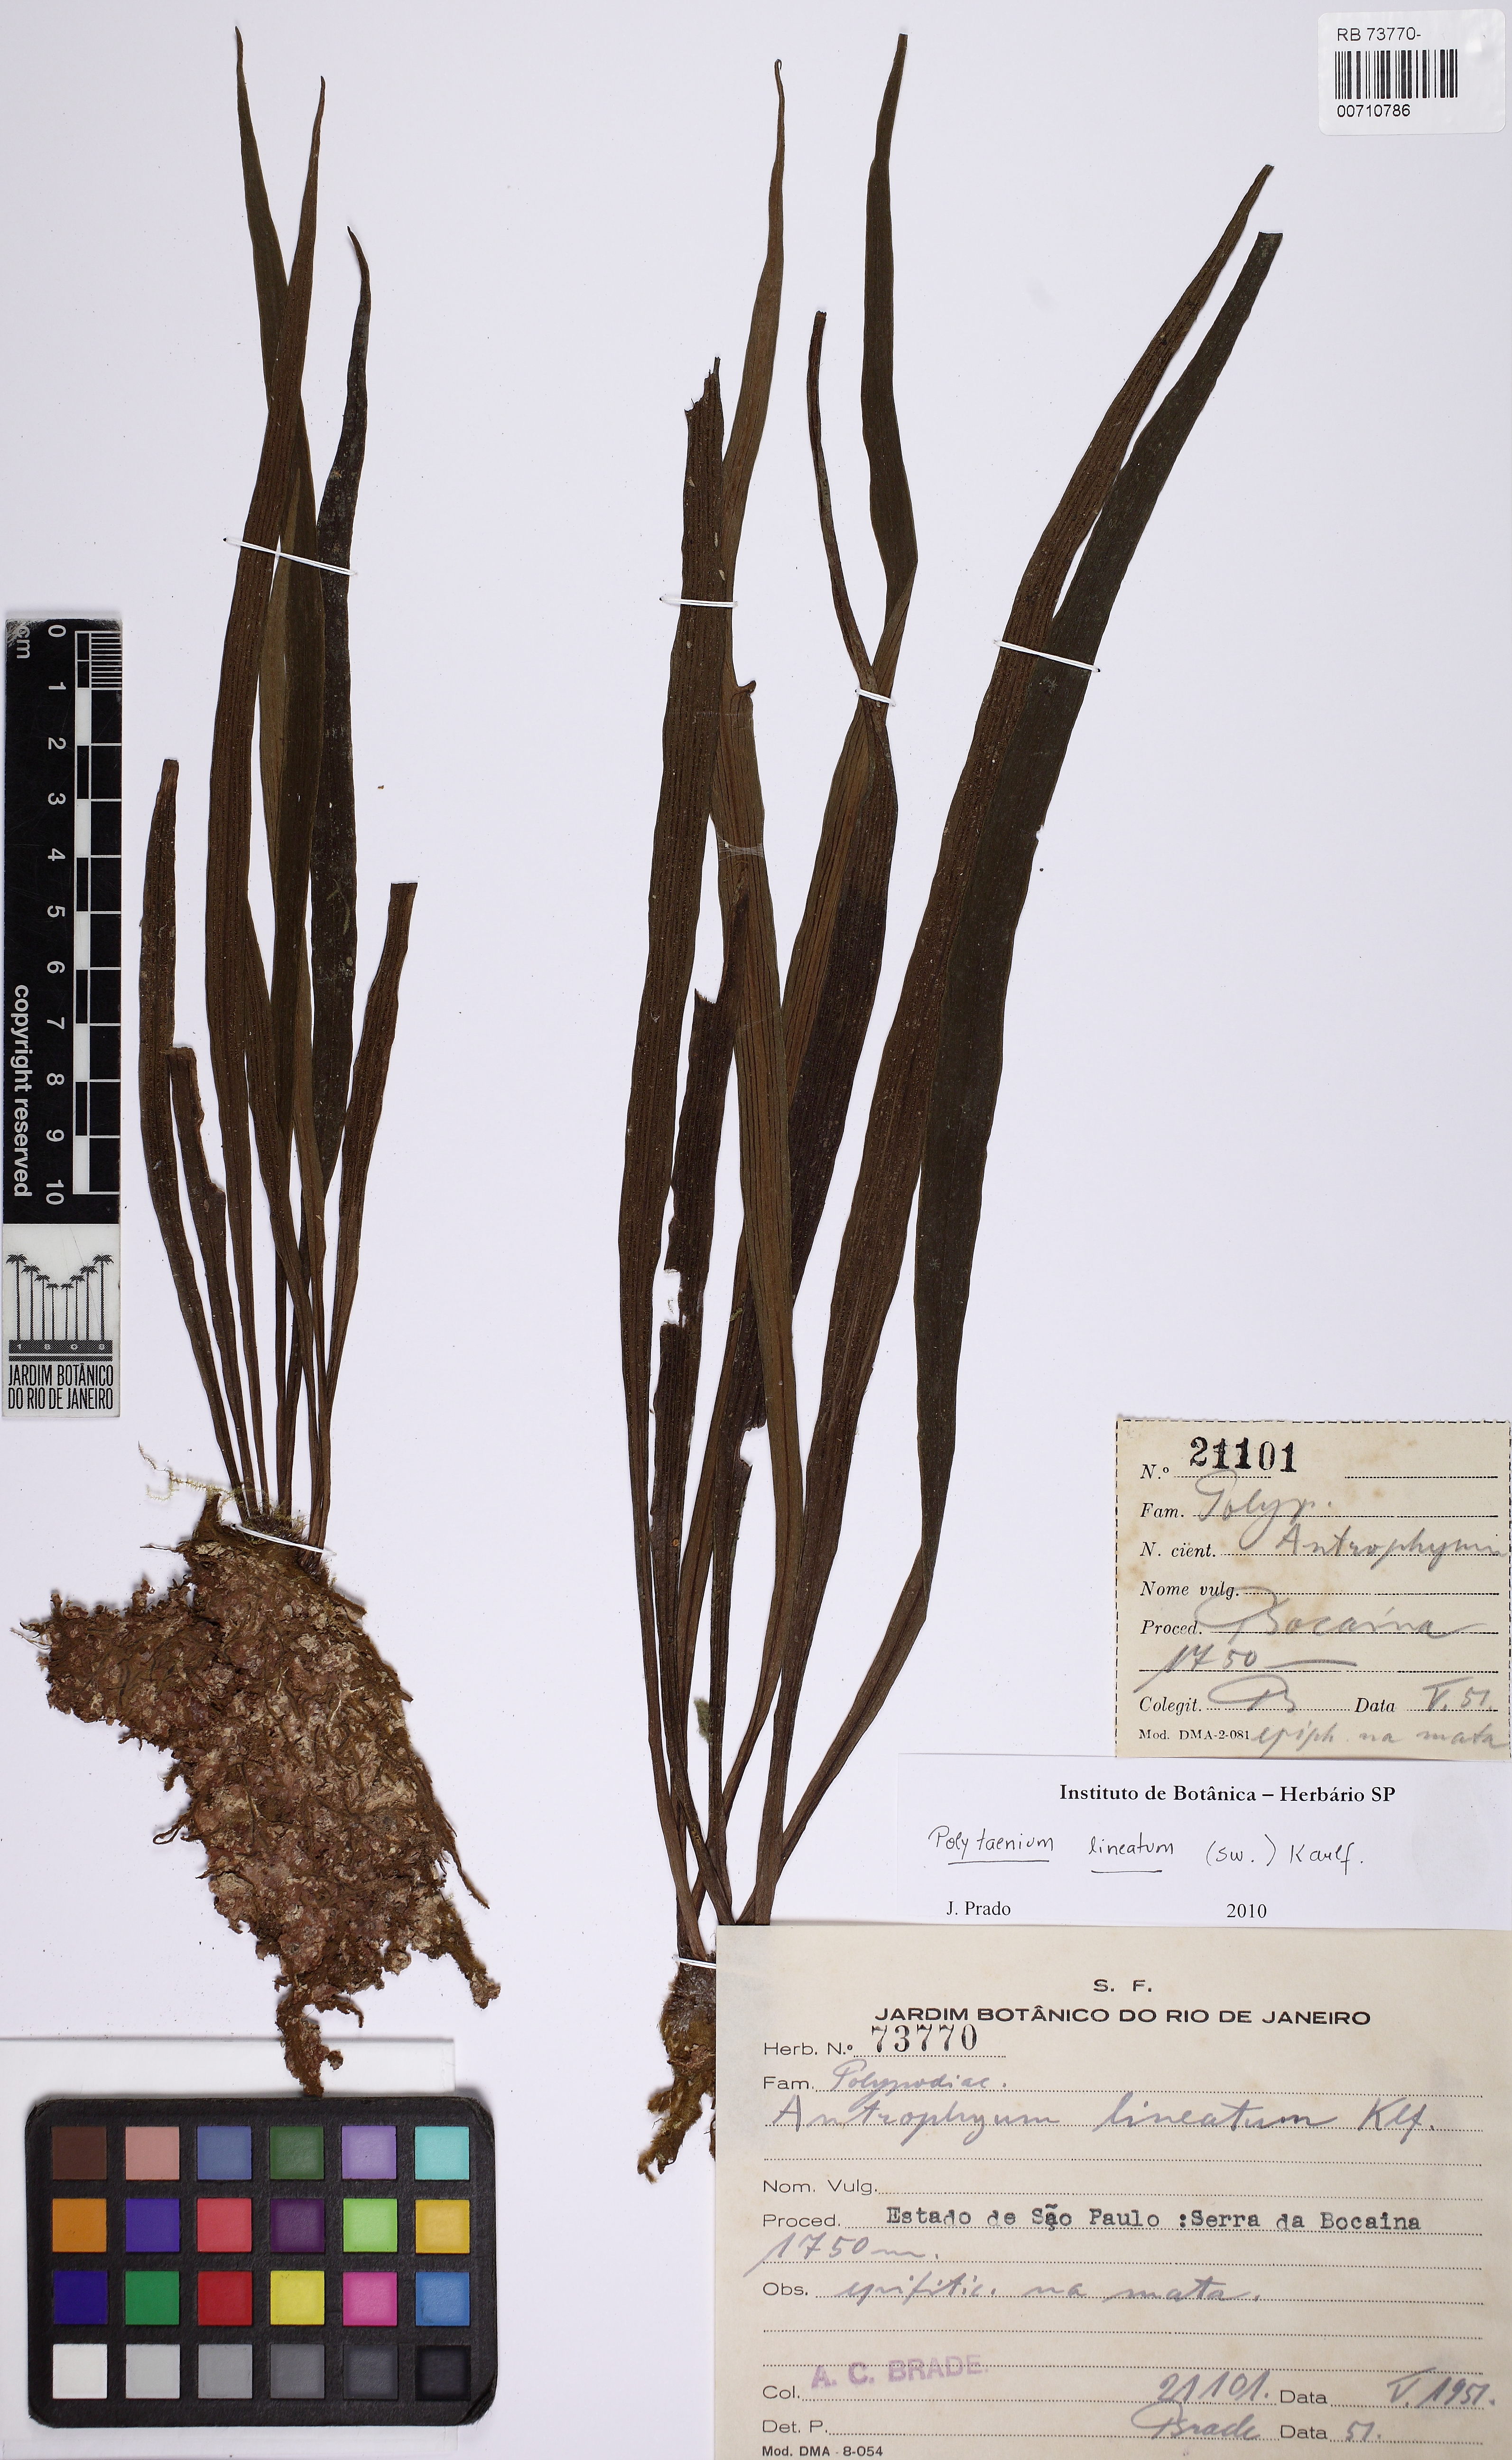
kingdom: Plantae
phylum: Tracheophyta
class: Polypodiopsida
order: Polypodiales
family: Pteridaceae
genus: Polytaenium
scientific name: Polytaenium lineatum
